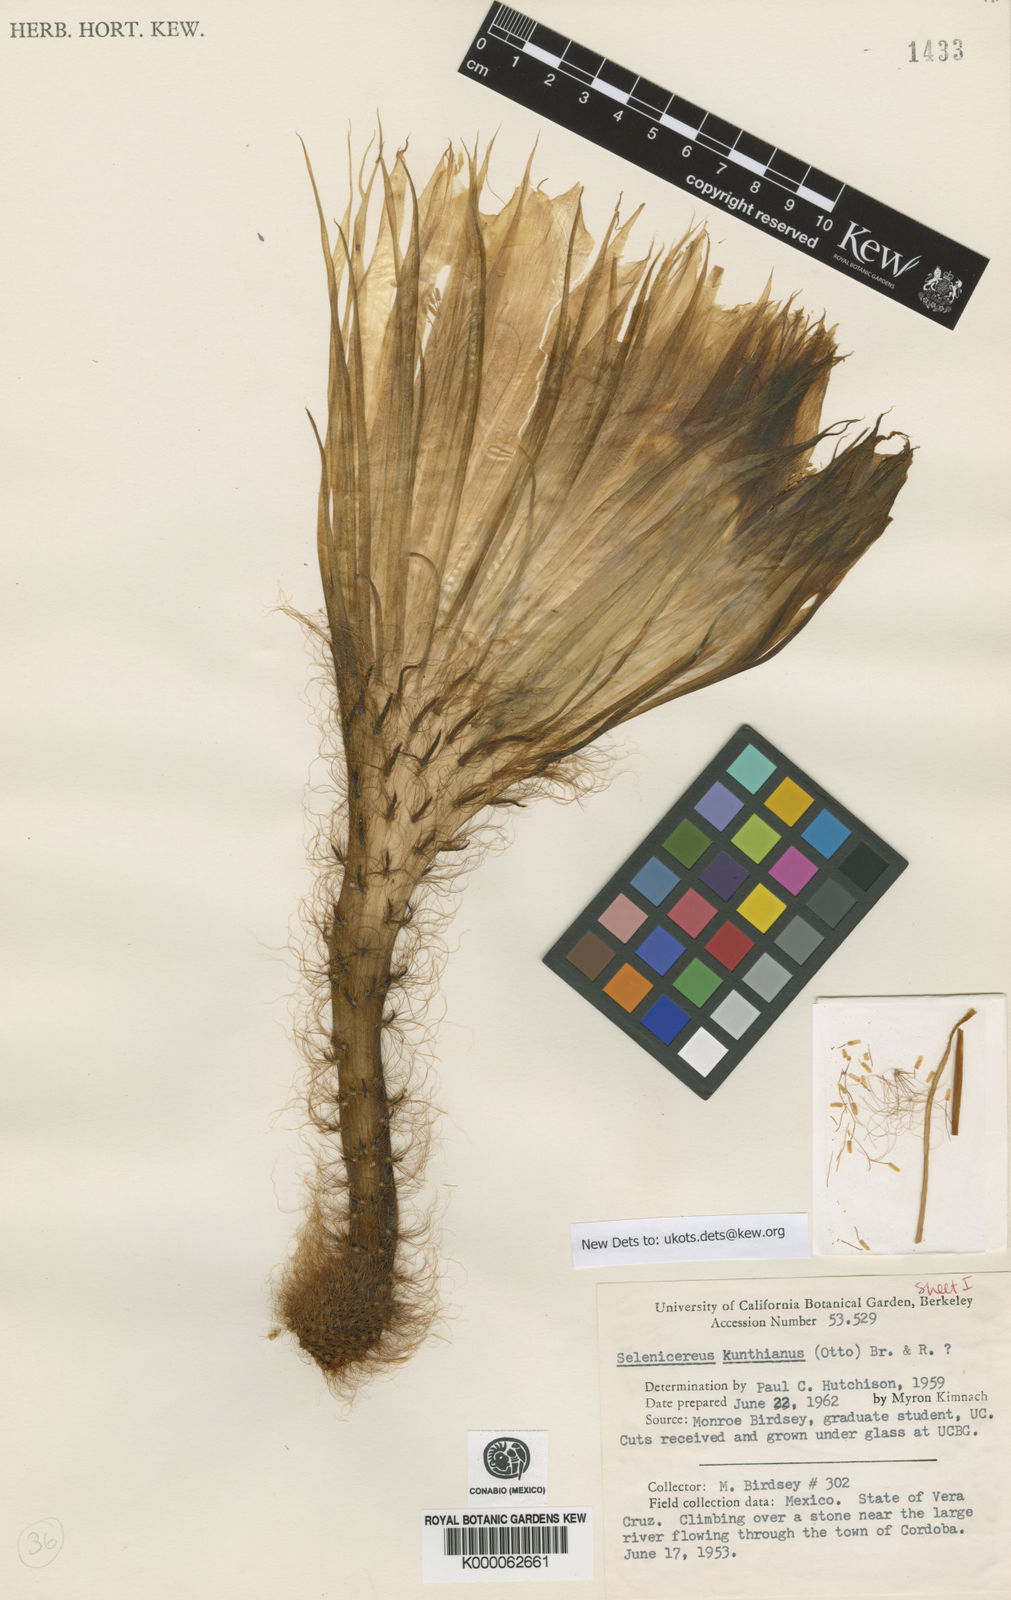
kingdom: Plantae
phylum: Tracheophyta
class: Magnoliopsida
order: Caryophyllales
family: Cactaceae
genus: Selenicereus
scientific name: Selenicereus grandiflorus
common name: Queen of the night
